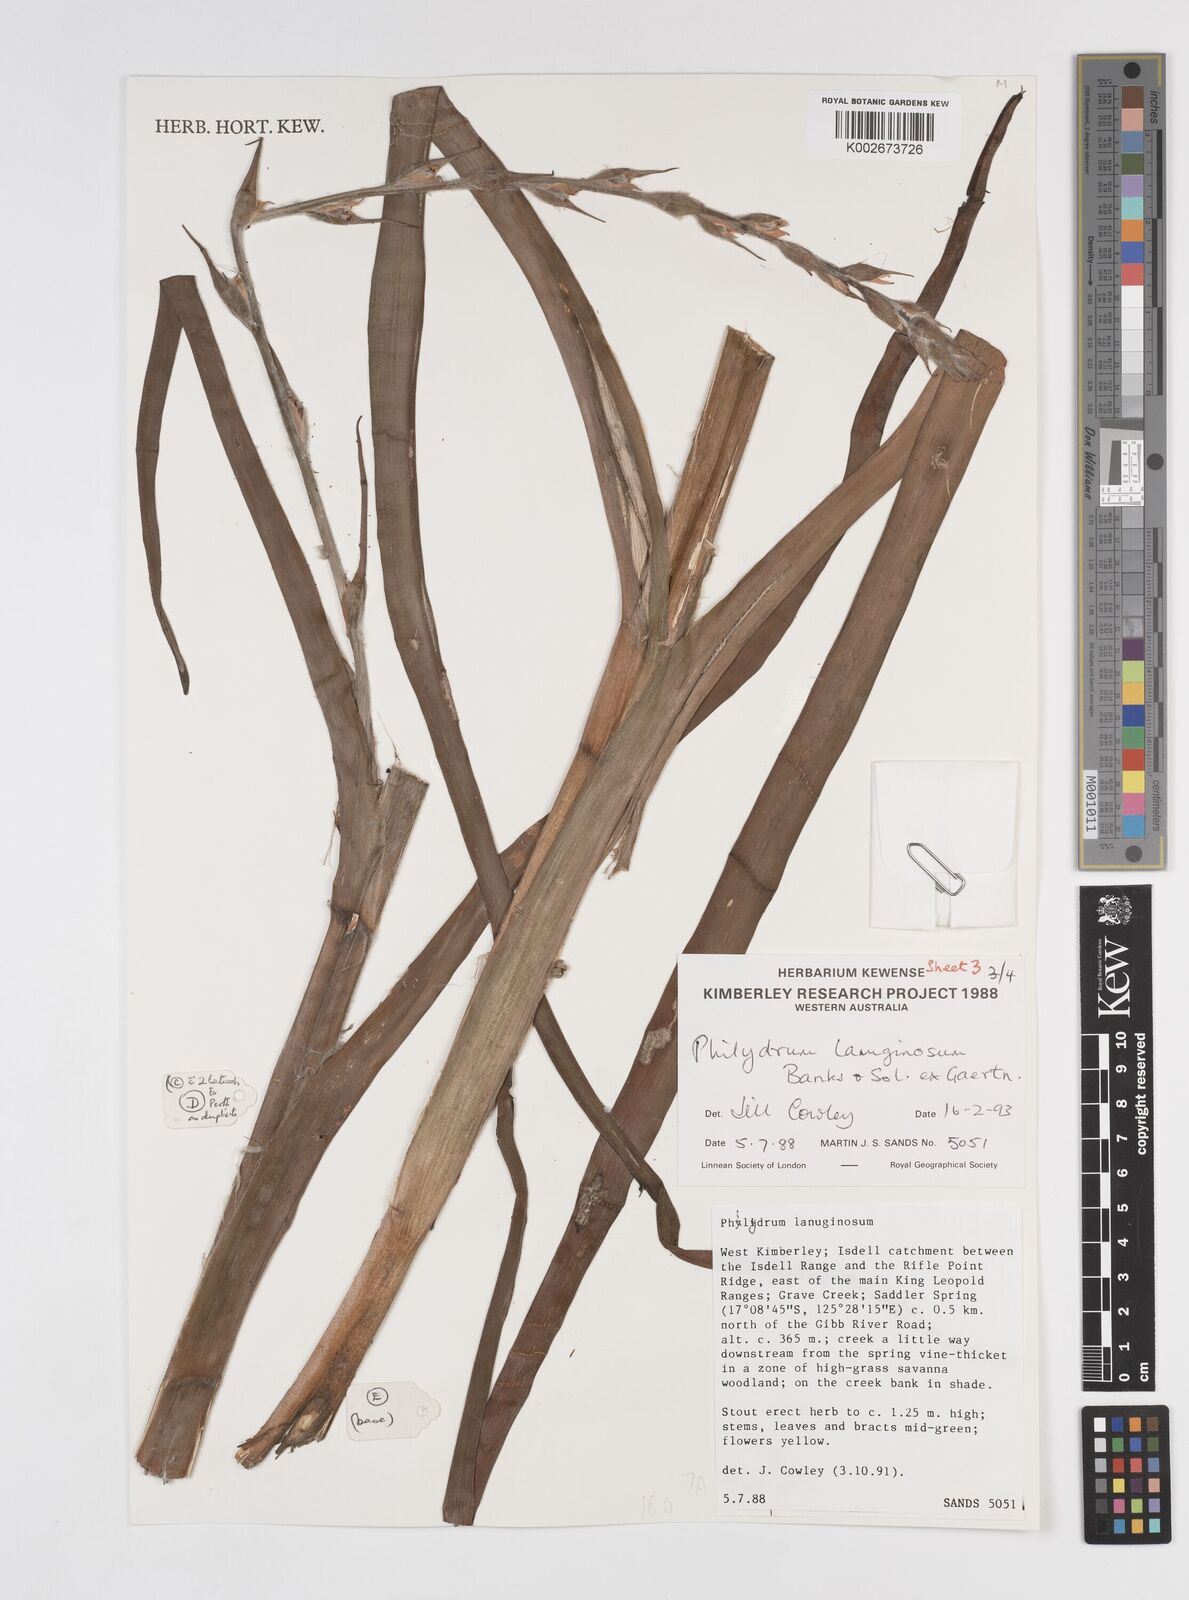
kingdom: Plantae
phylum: Tracheophyta
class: Liliopsida
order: Commelinales
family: Philydraceae
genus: Philydrum
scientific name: Philydrum lanuginosum
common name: Woolly frog's mouth
